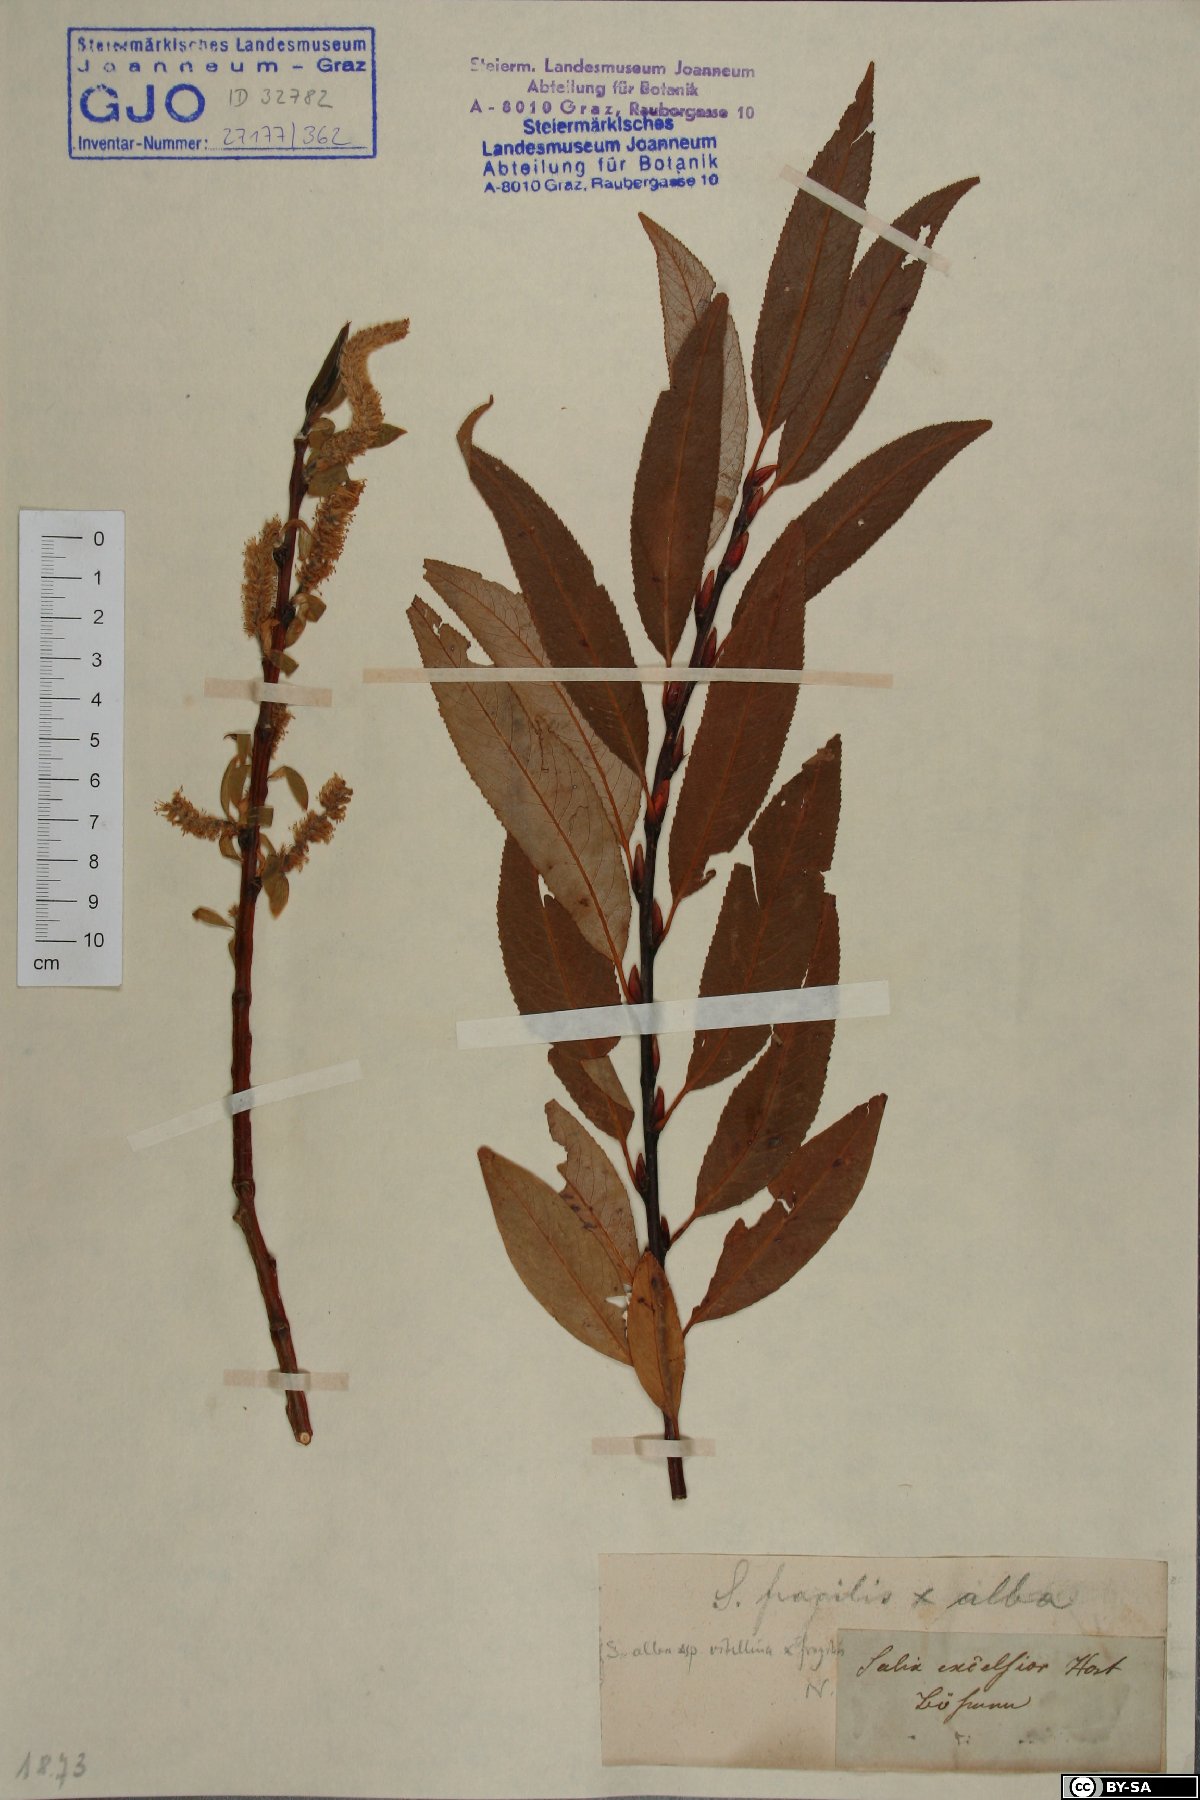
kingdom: Plantae
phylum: Tracheophyta
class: Magnoliopsida
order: Malpighiales
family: Salicaceae
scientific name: Salicaceae
